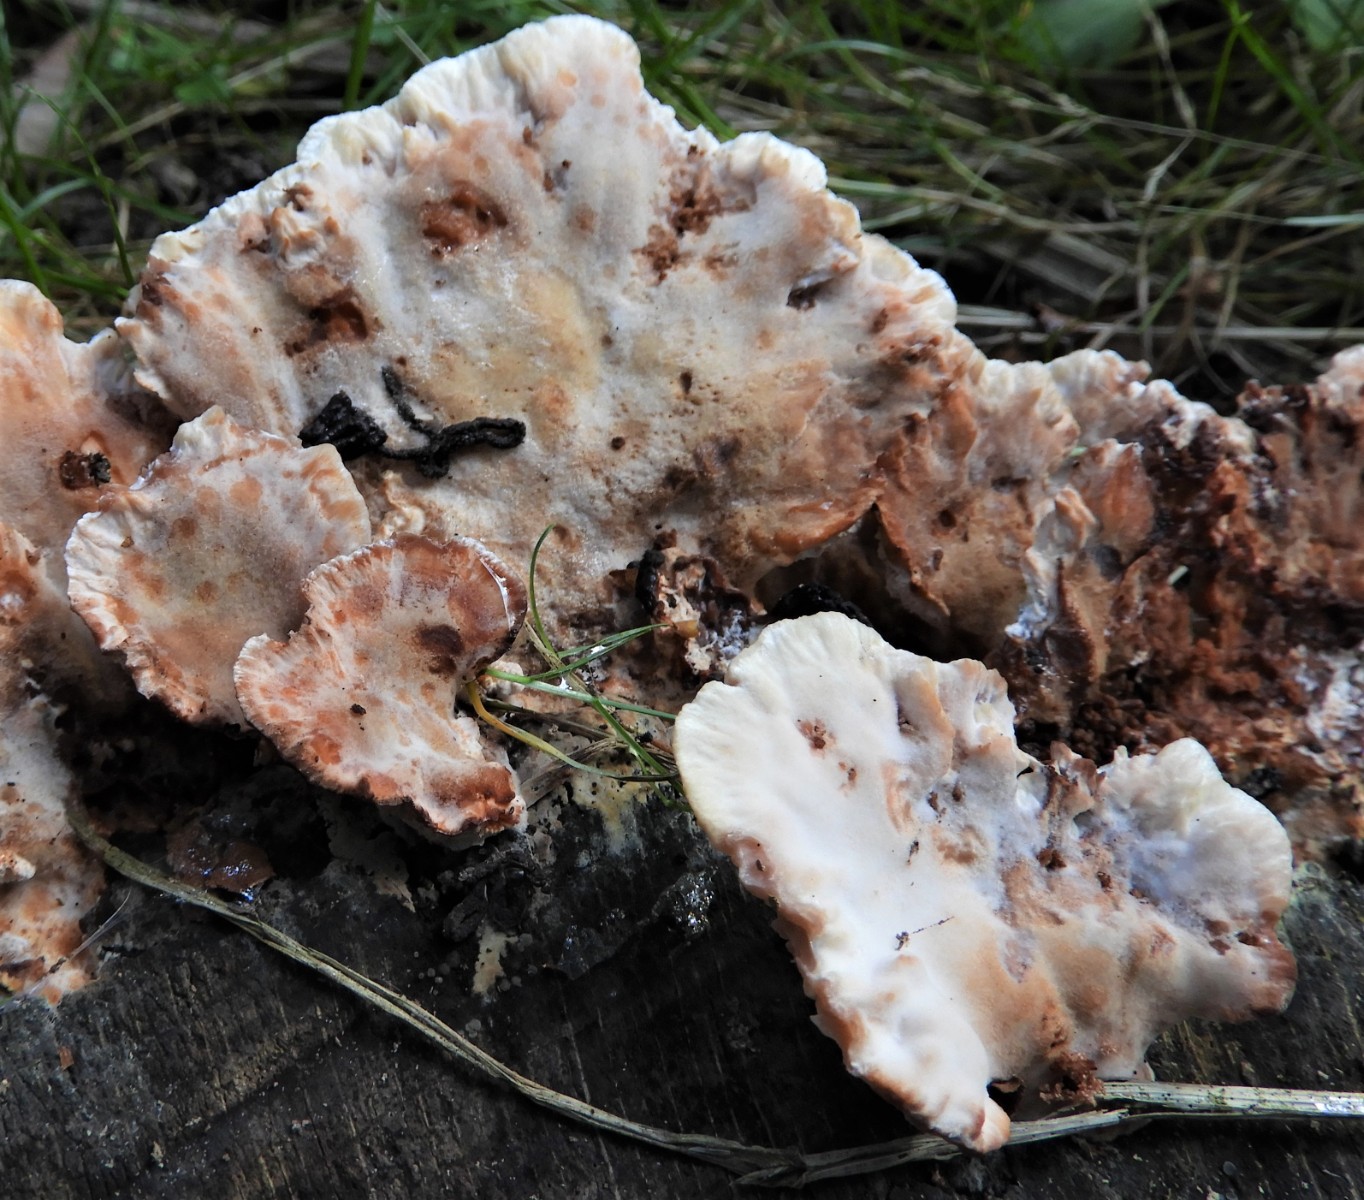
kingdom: Fungi
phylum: Basidiomycota
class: Agaricomycetes
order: Polyporales
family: Podoscyphaceae
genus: Abortiporus
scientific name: Abortiporus biennis
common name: rødmende pjalteporesvamp
